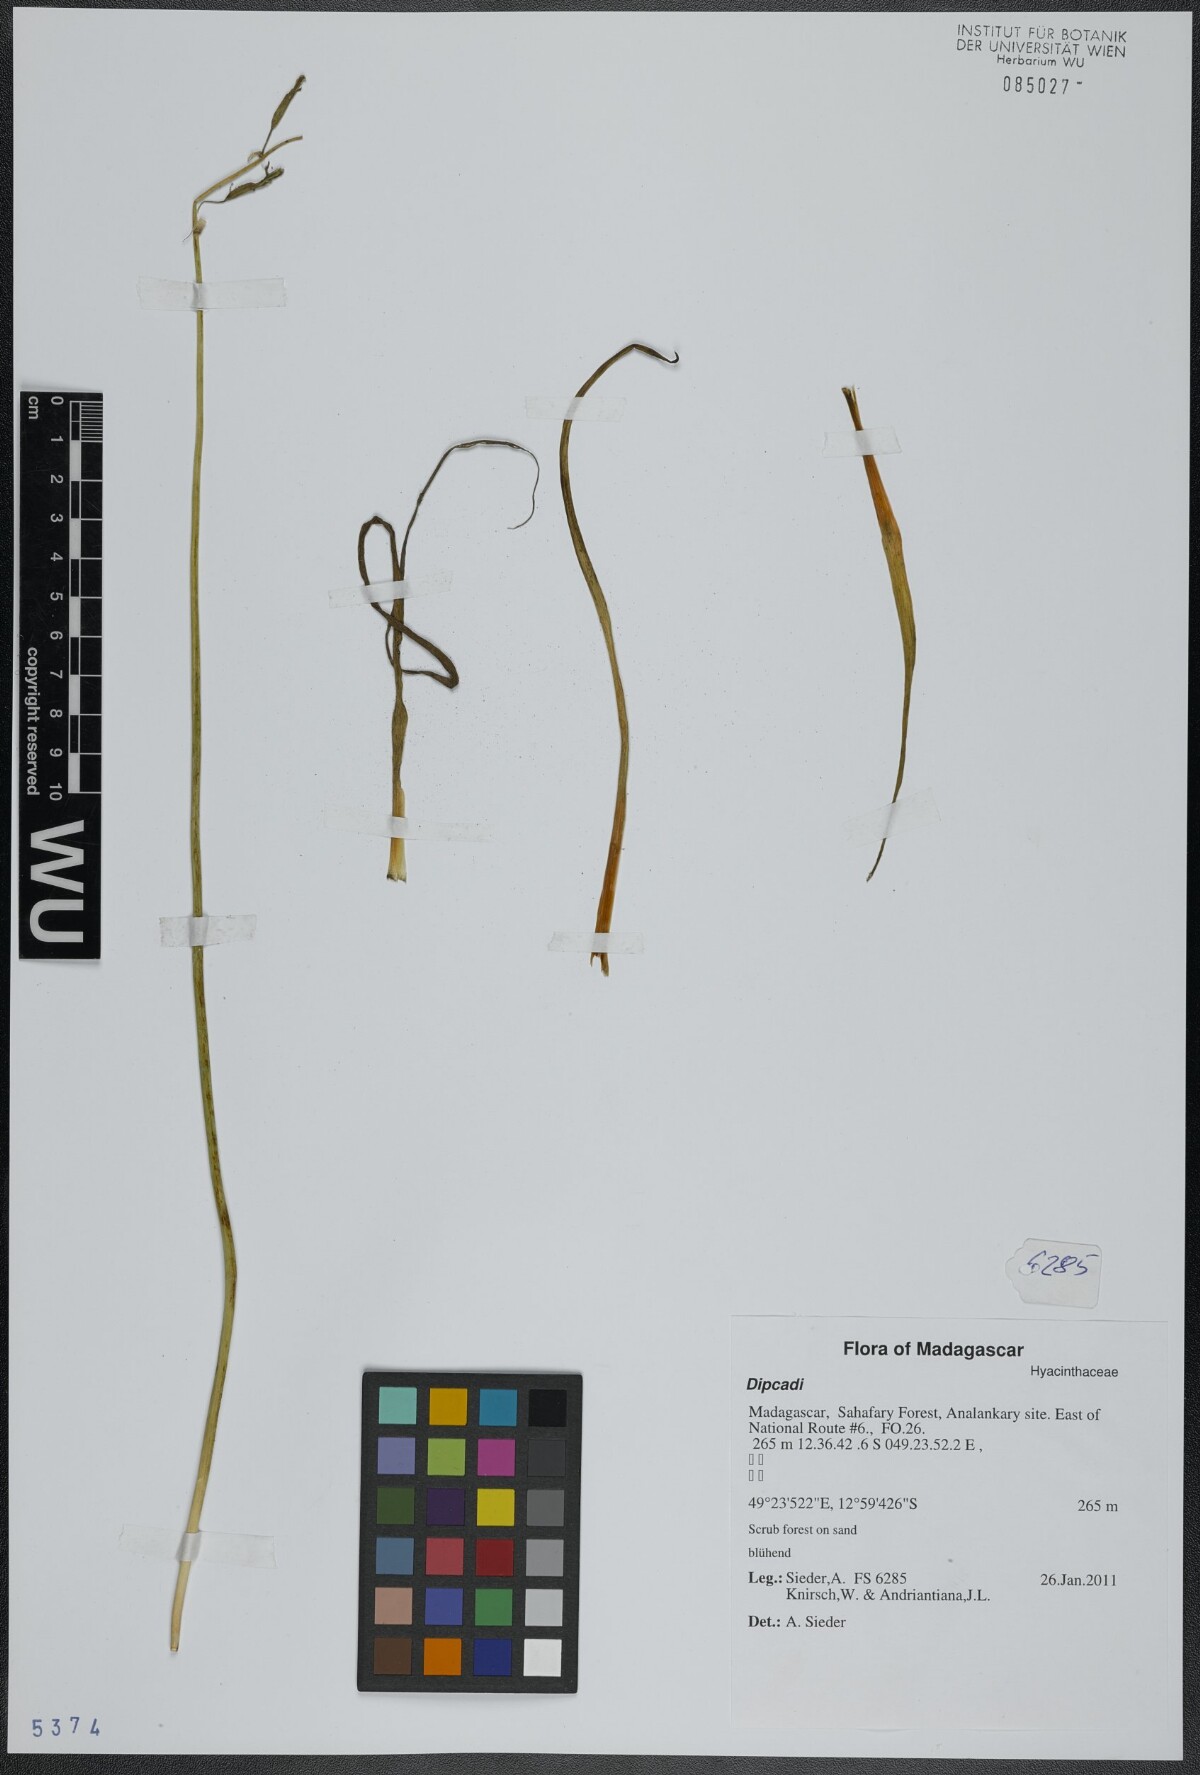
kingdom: Plantae
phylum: Tracheophyta
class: Liliopsida
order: Asparagales
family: Asparagaceae
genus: Dipcadi
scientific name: Dipcadi
